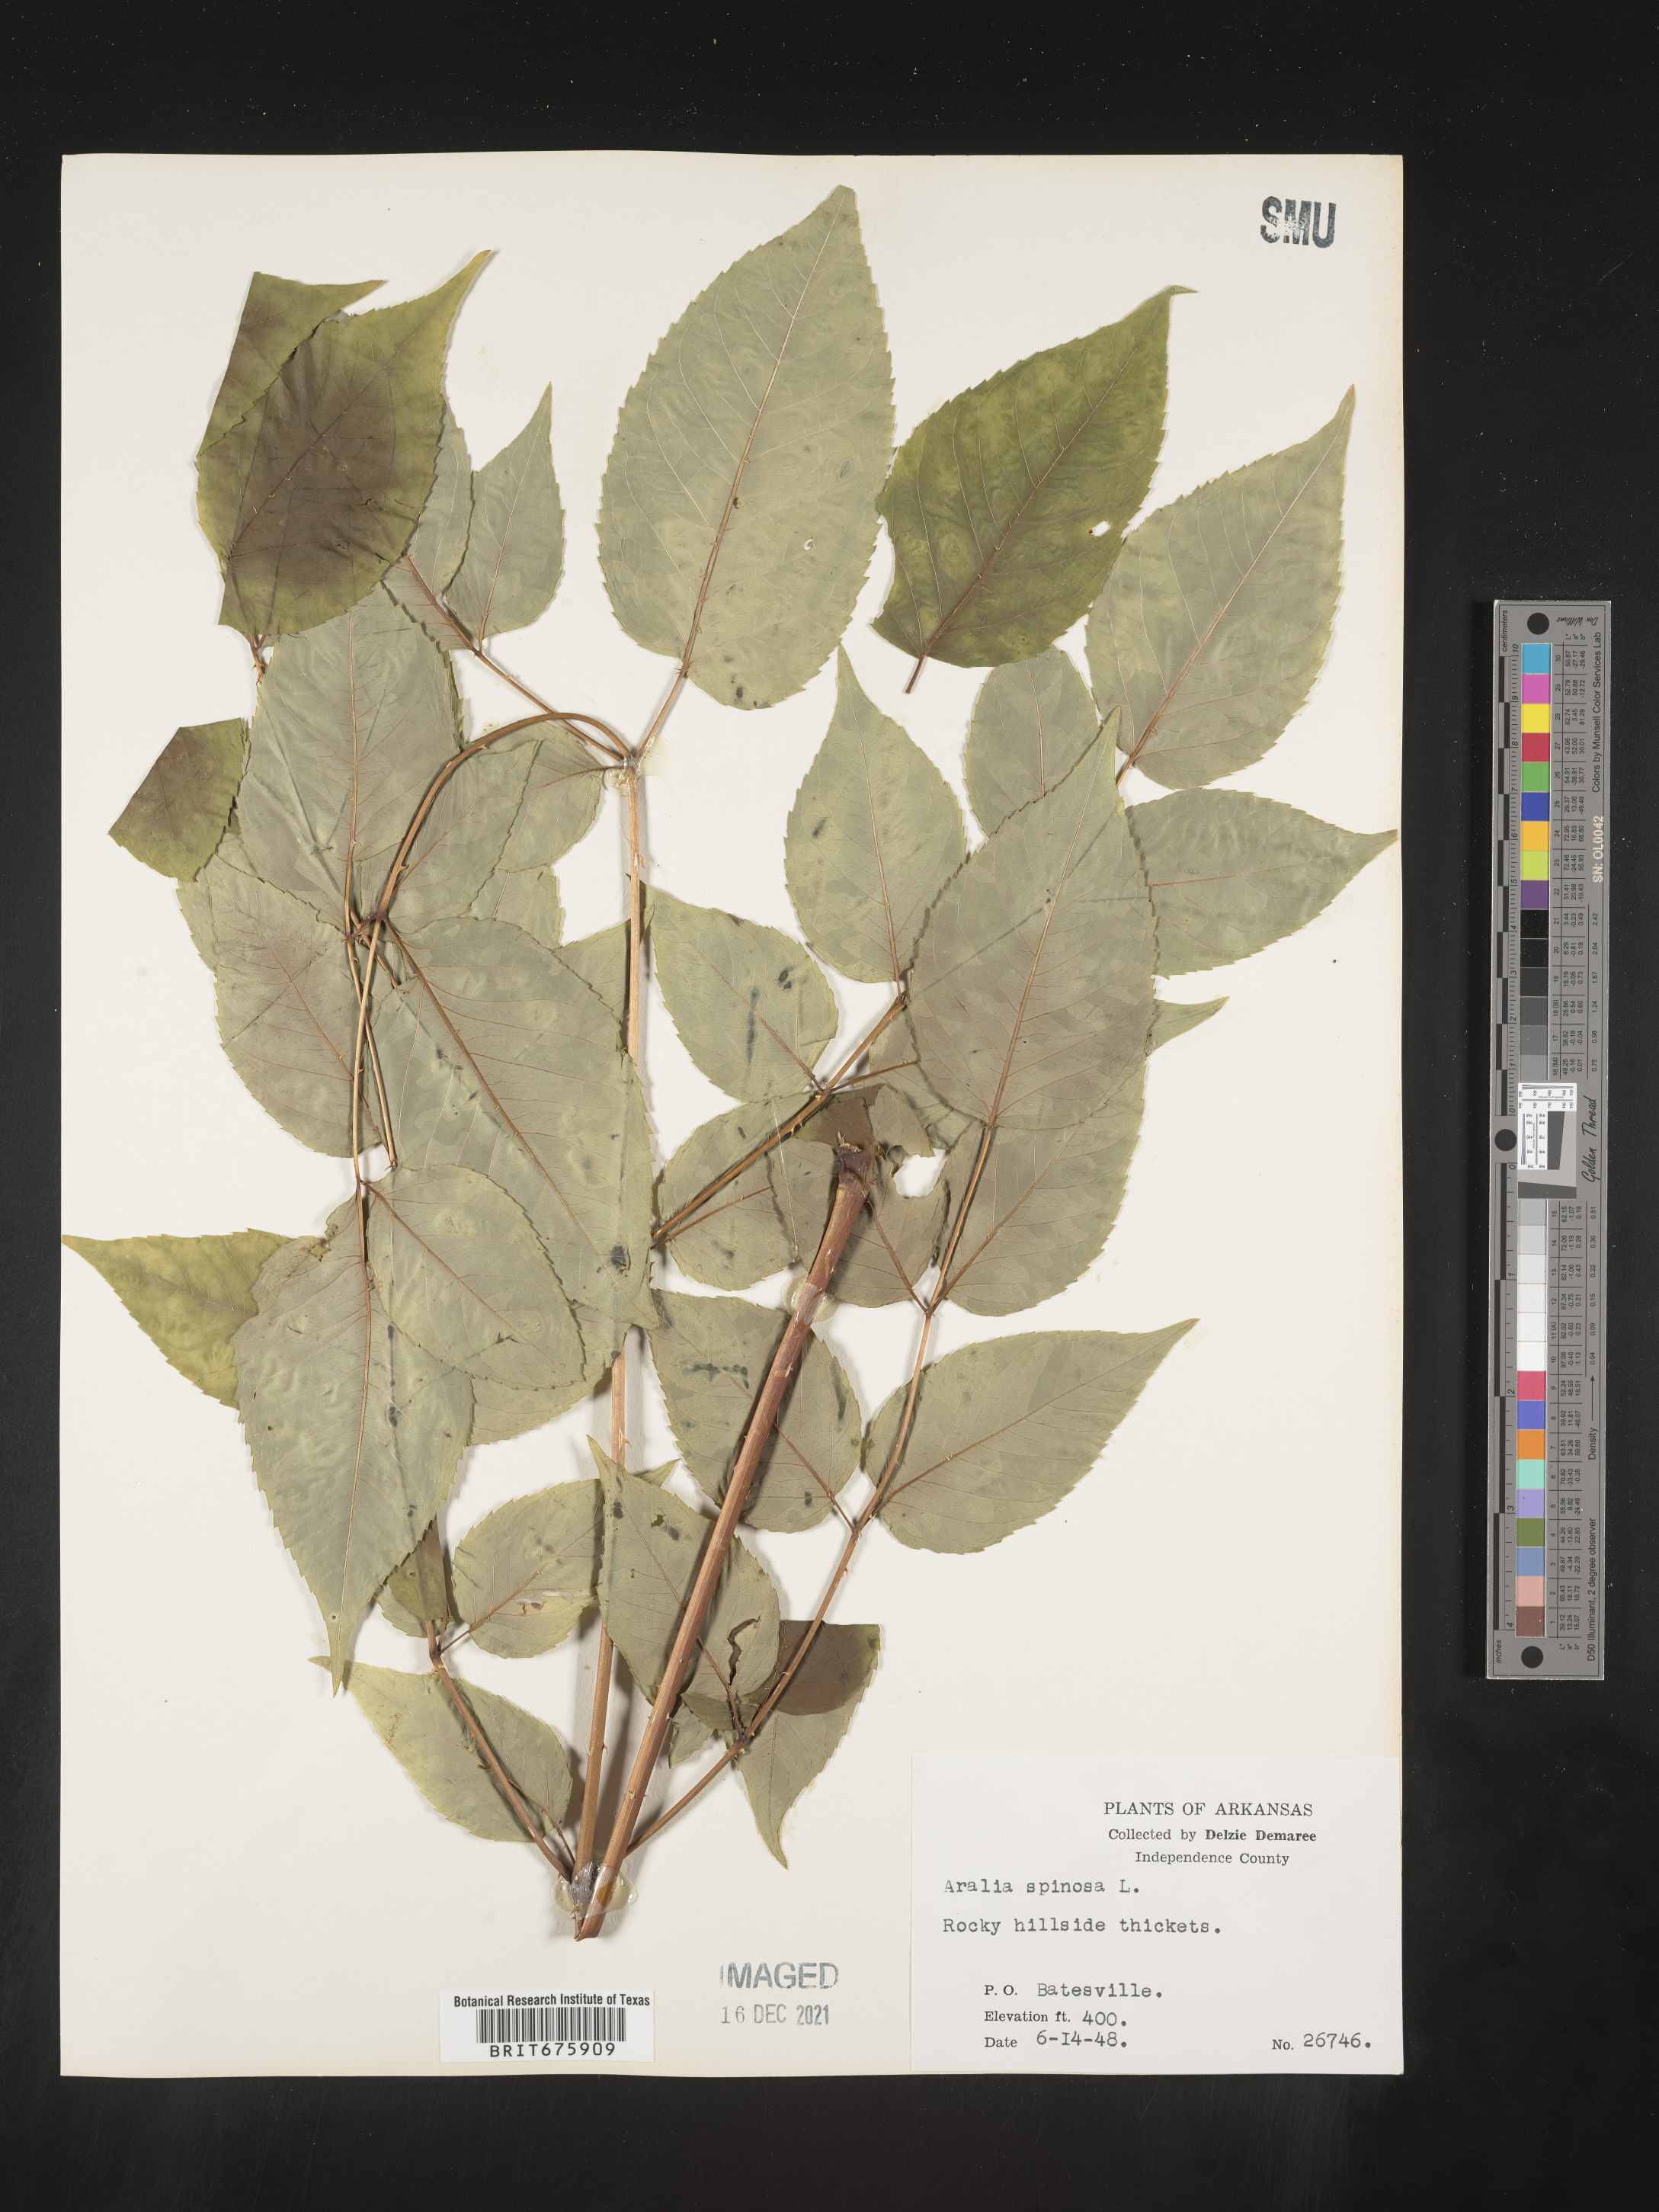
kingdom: Plantae
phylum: Tracheophyta
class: Magnoliopsida
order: Apiales
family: Araliaceae
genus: Aralia
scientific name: Aralia spinosa
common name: Hercules'-club
